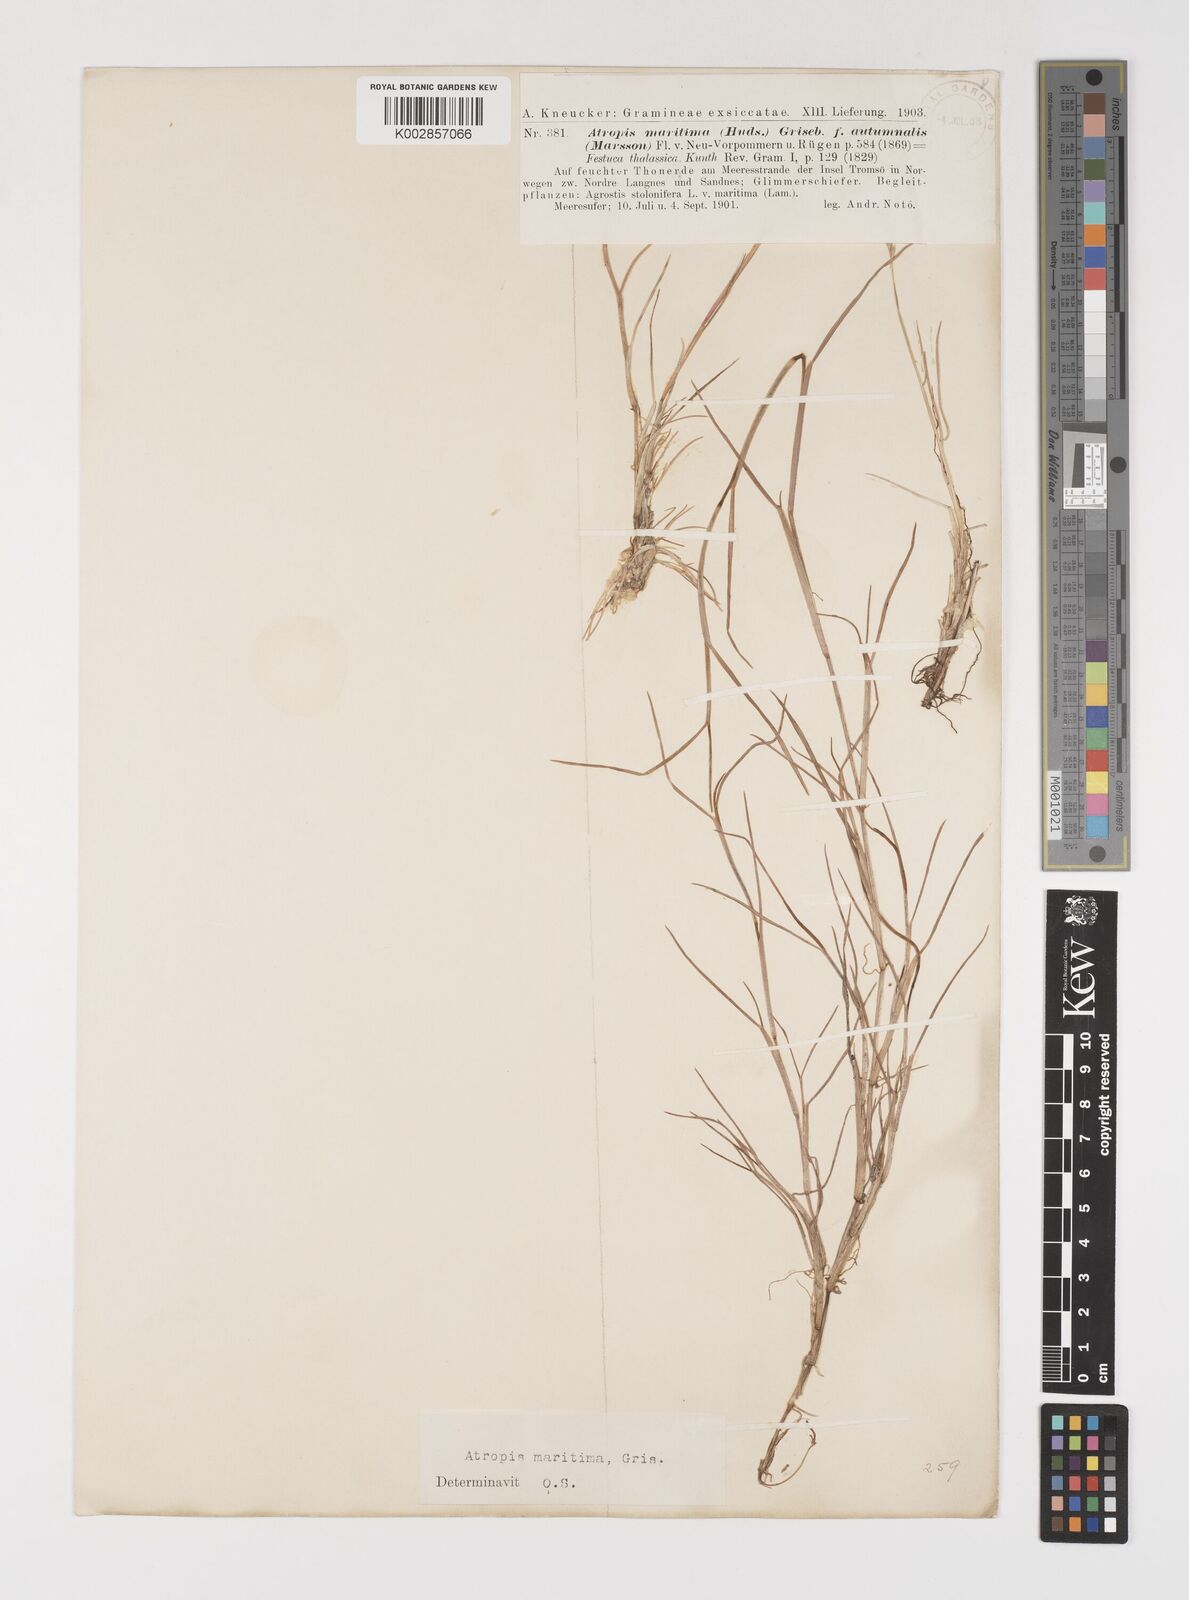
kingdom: Plantae
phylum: Tracheophyta
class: Liliopsida
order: Poales
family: Poaceae
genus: Puccinellia
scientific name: Puccinellia maritima
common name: Common saltmarsh grass
